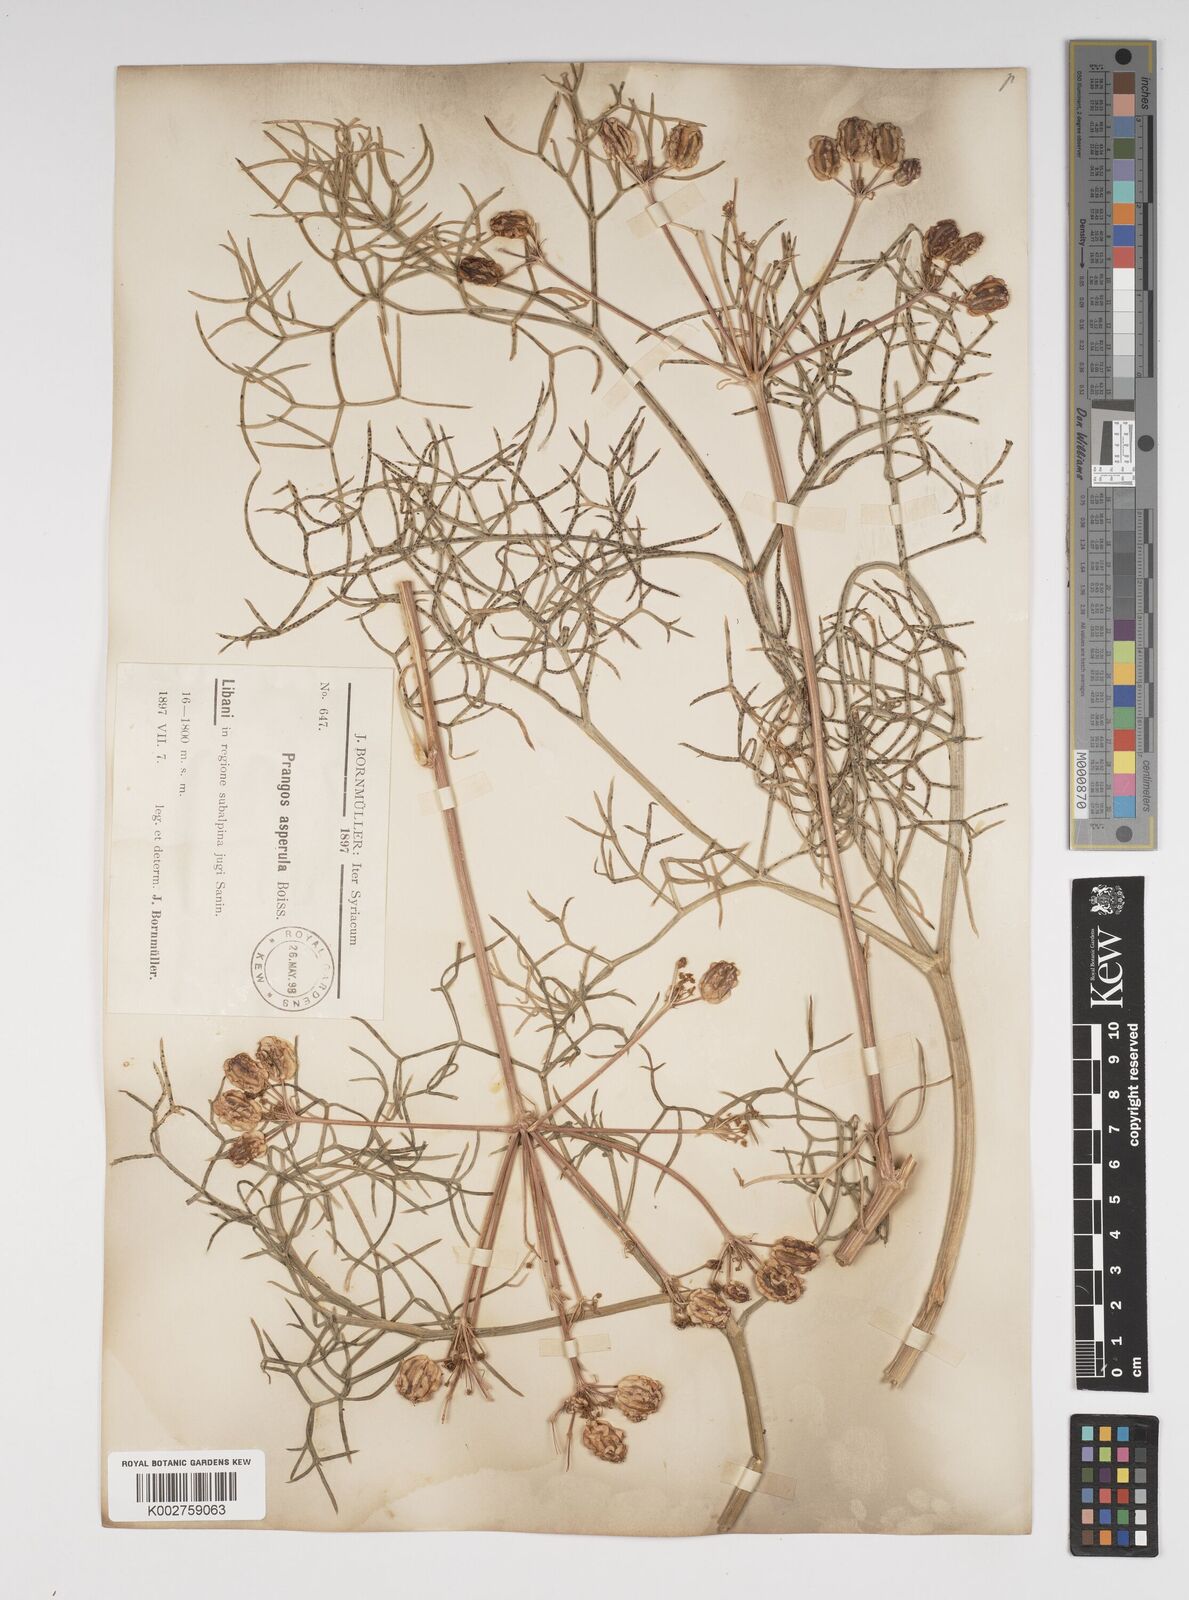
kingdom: Plantae
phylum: Tracheophyta
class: Magnoliopsida
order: Apiales
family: Apiaceae
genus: Prangos
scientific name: Prangos asperula
